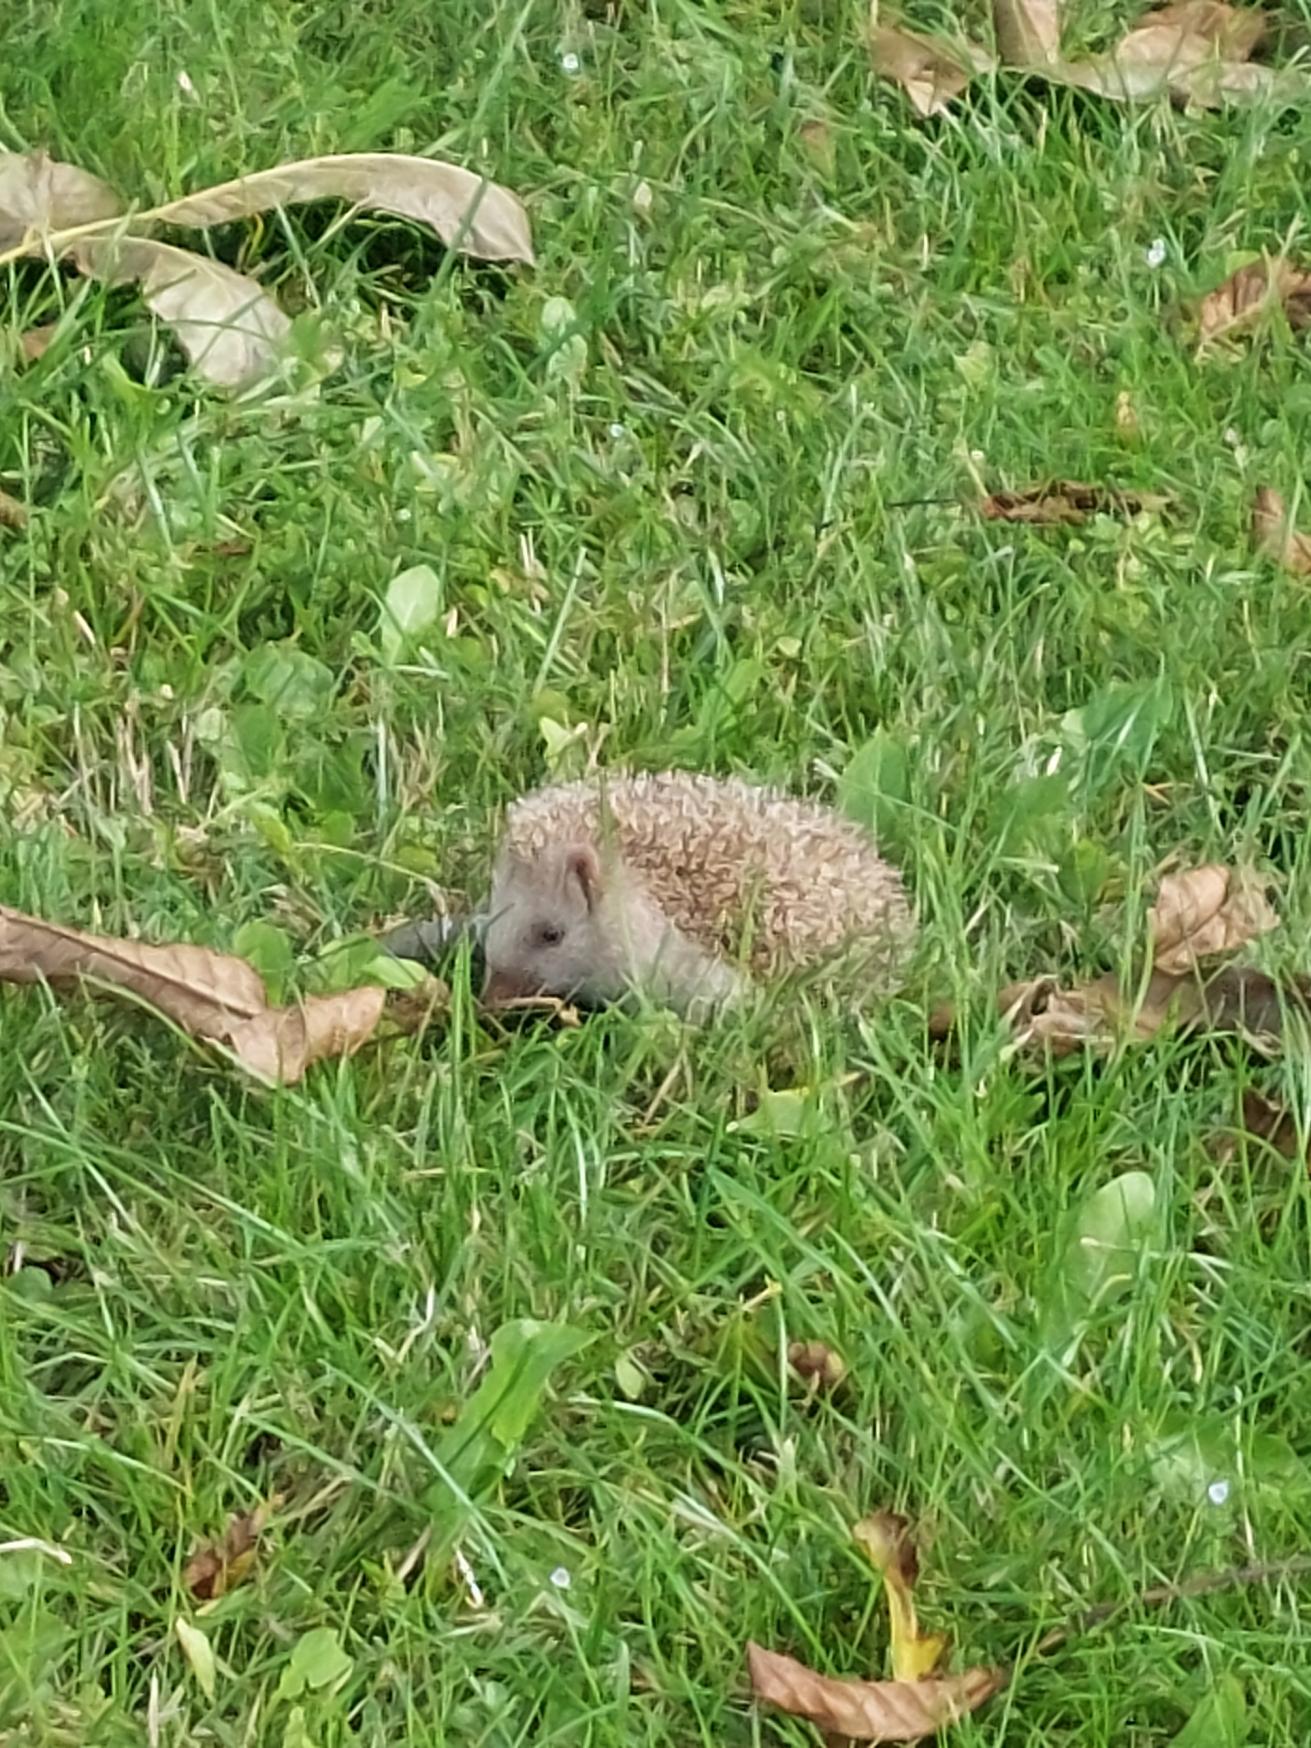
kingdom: Animalia
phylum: Chordata
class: Mammalia
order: Erinaceomorpha
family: Erinaceidae
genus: Erinaceus
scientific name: Erinaceus europaeus
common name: Pindsvin
